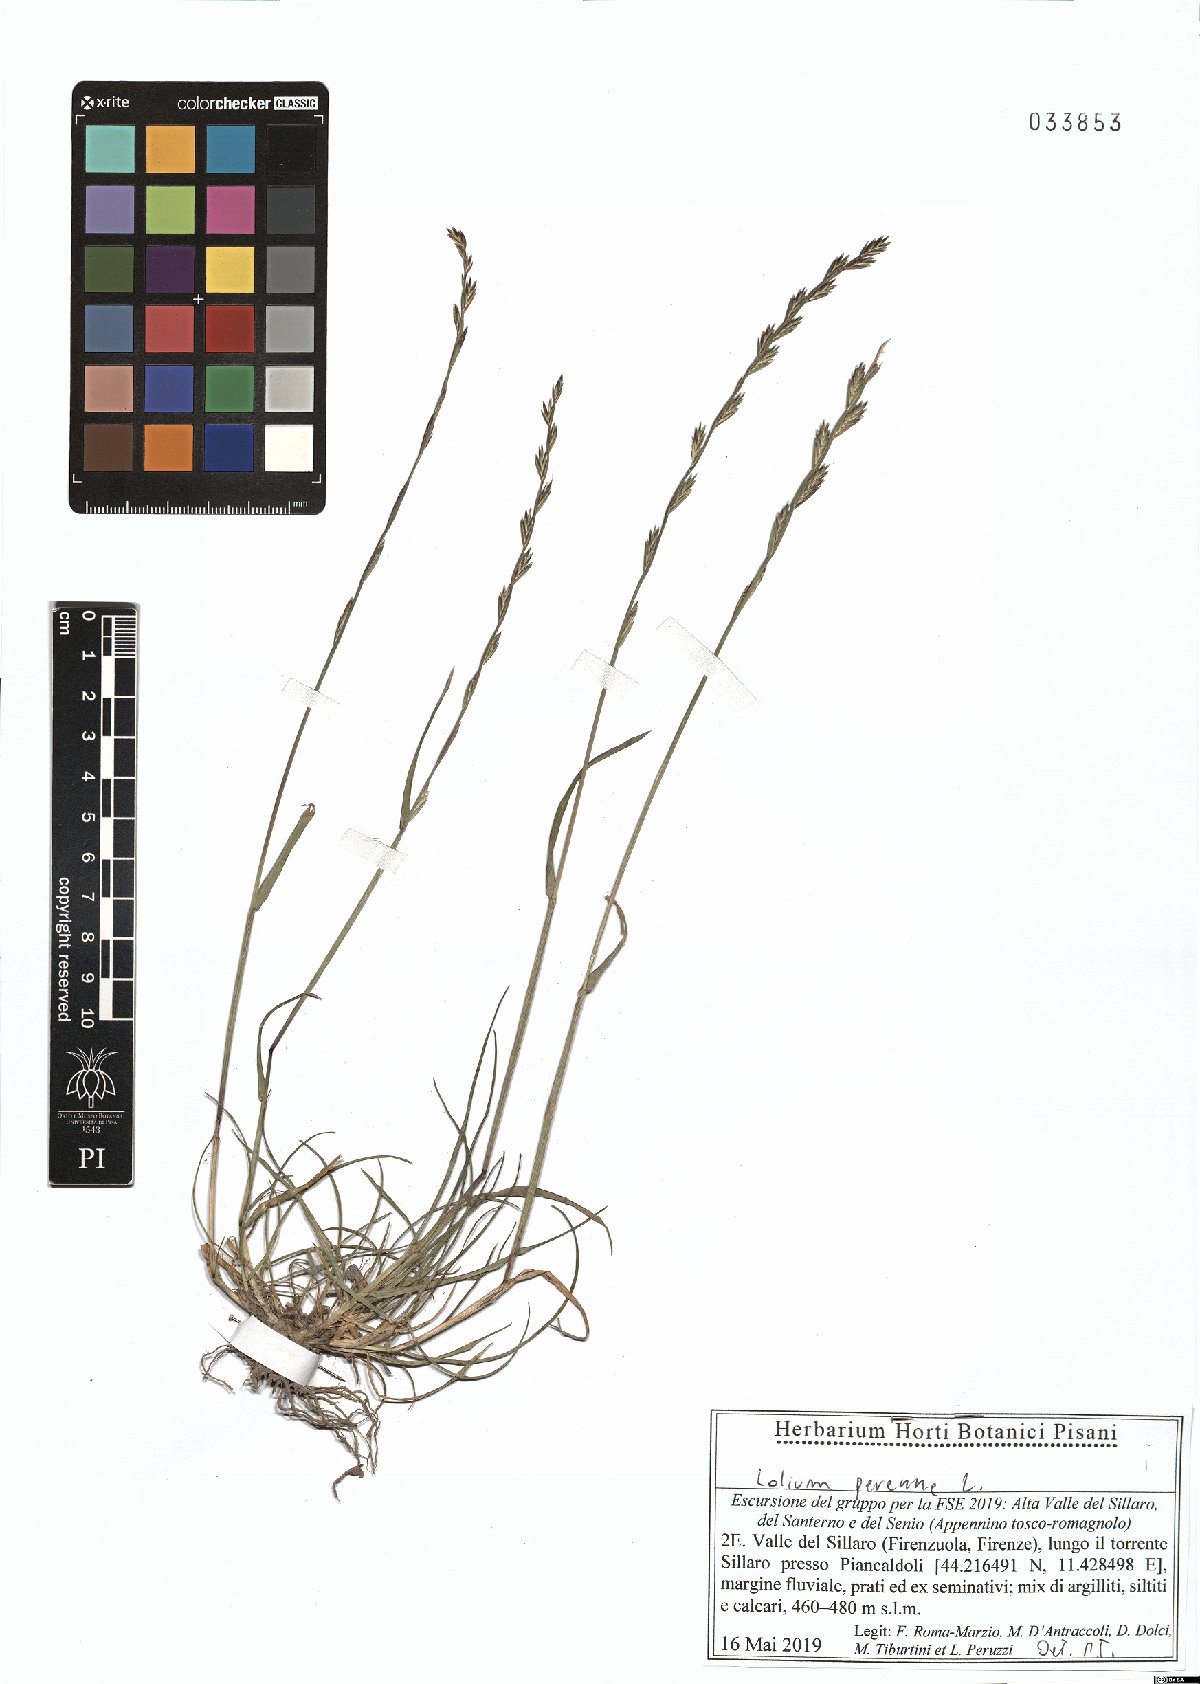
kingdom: Plantae
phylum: Tracheophyta
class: Liliopsida
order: Poales
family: Poaceae
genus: Lolium
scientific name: Lolium perenne
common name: Perennial ryegrass
